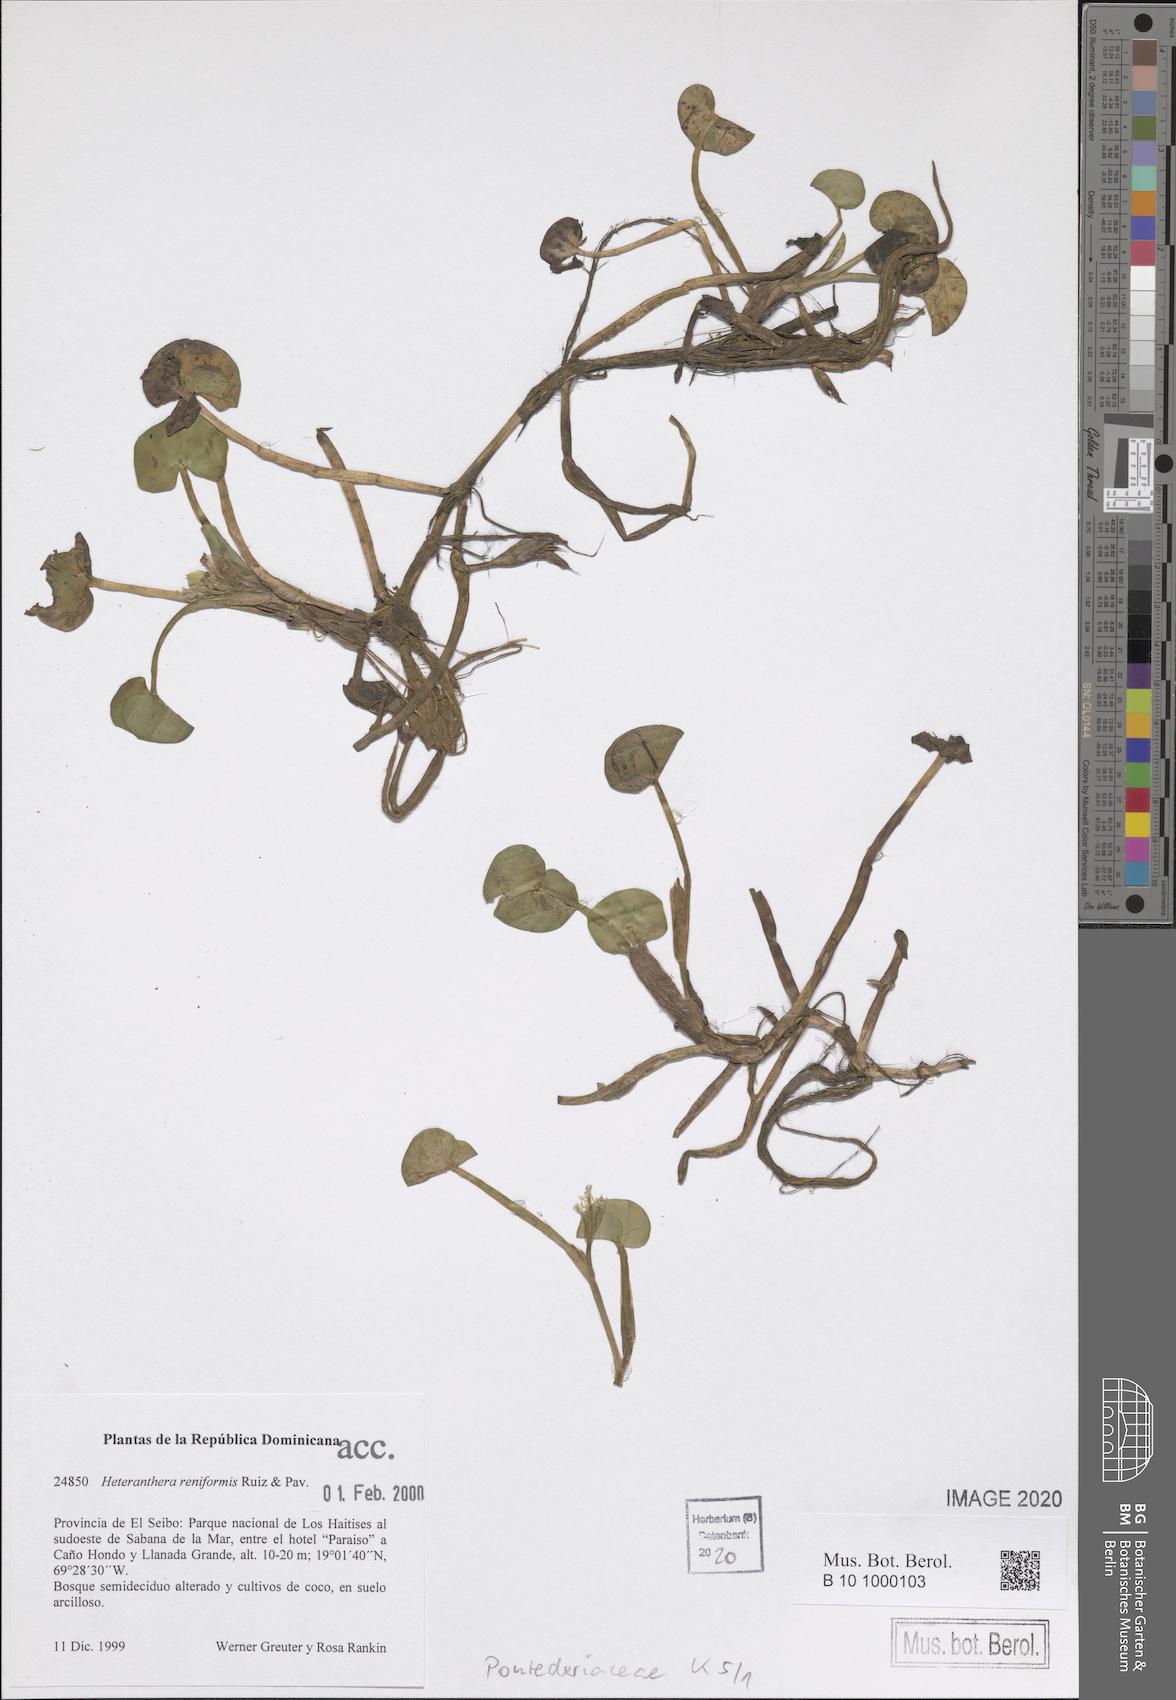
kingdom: Plantae
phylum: Tracheophyta
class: Liliopsida
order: Commelinales
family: Pontederiaceae
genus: Heteranthera
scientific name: Heteranthera reniformis
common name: Kidneyleaf mudplantain
